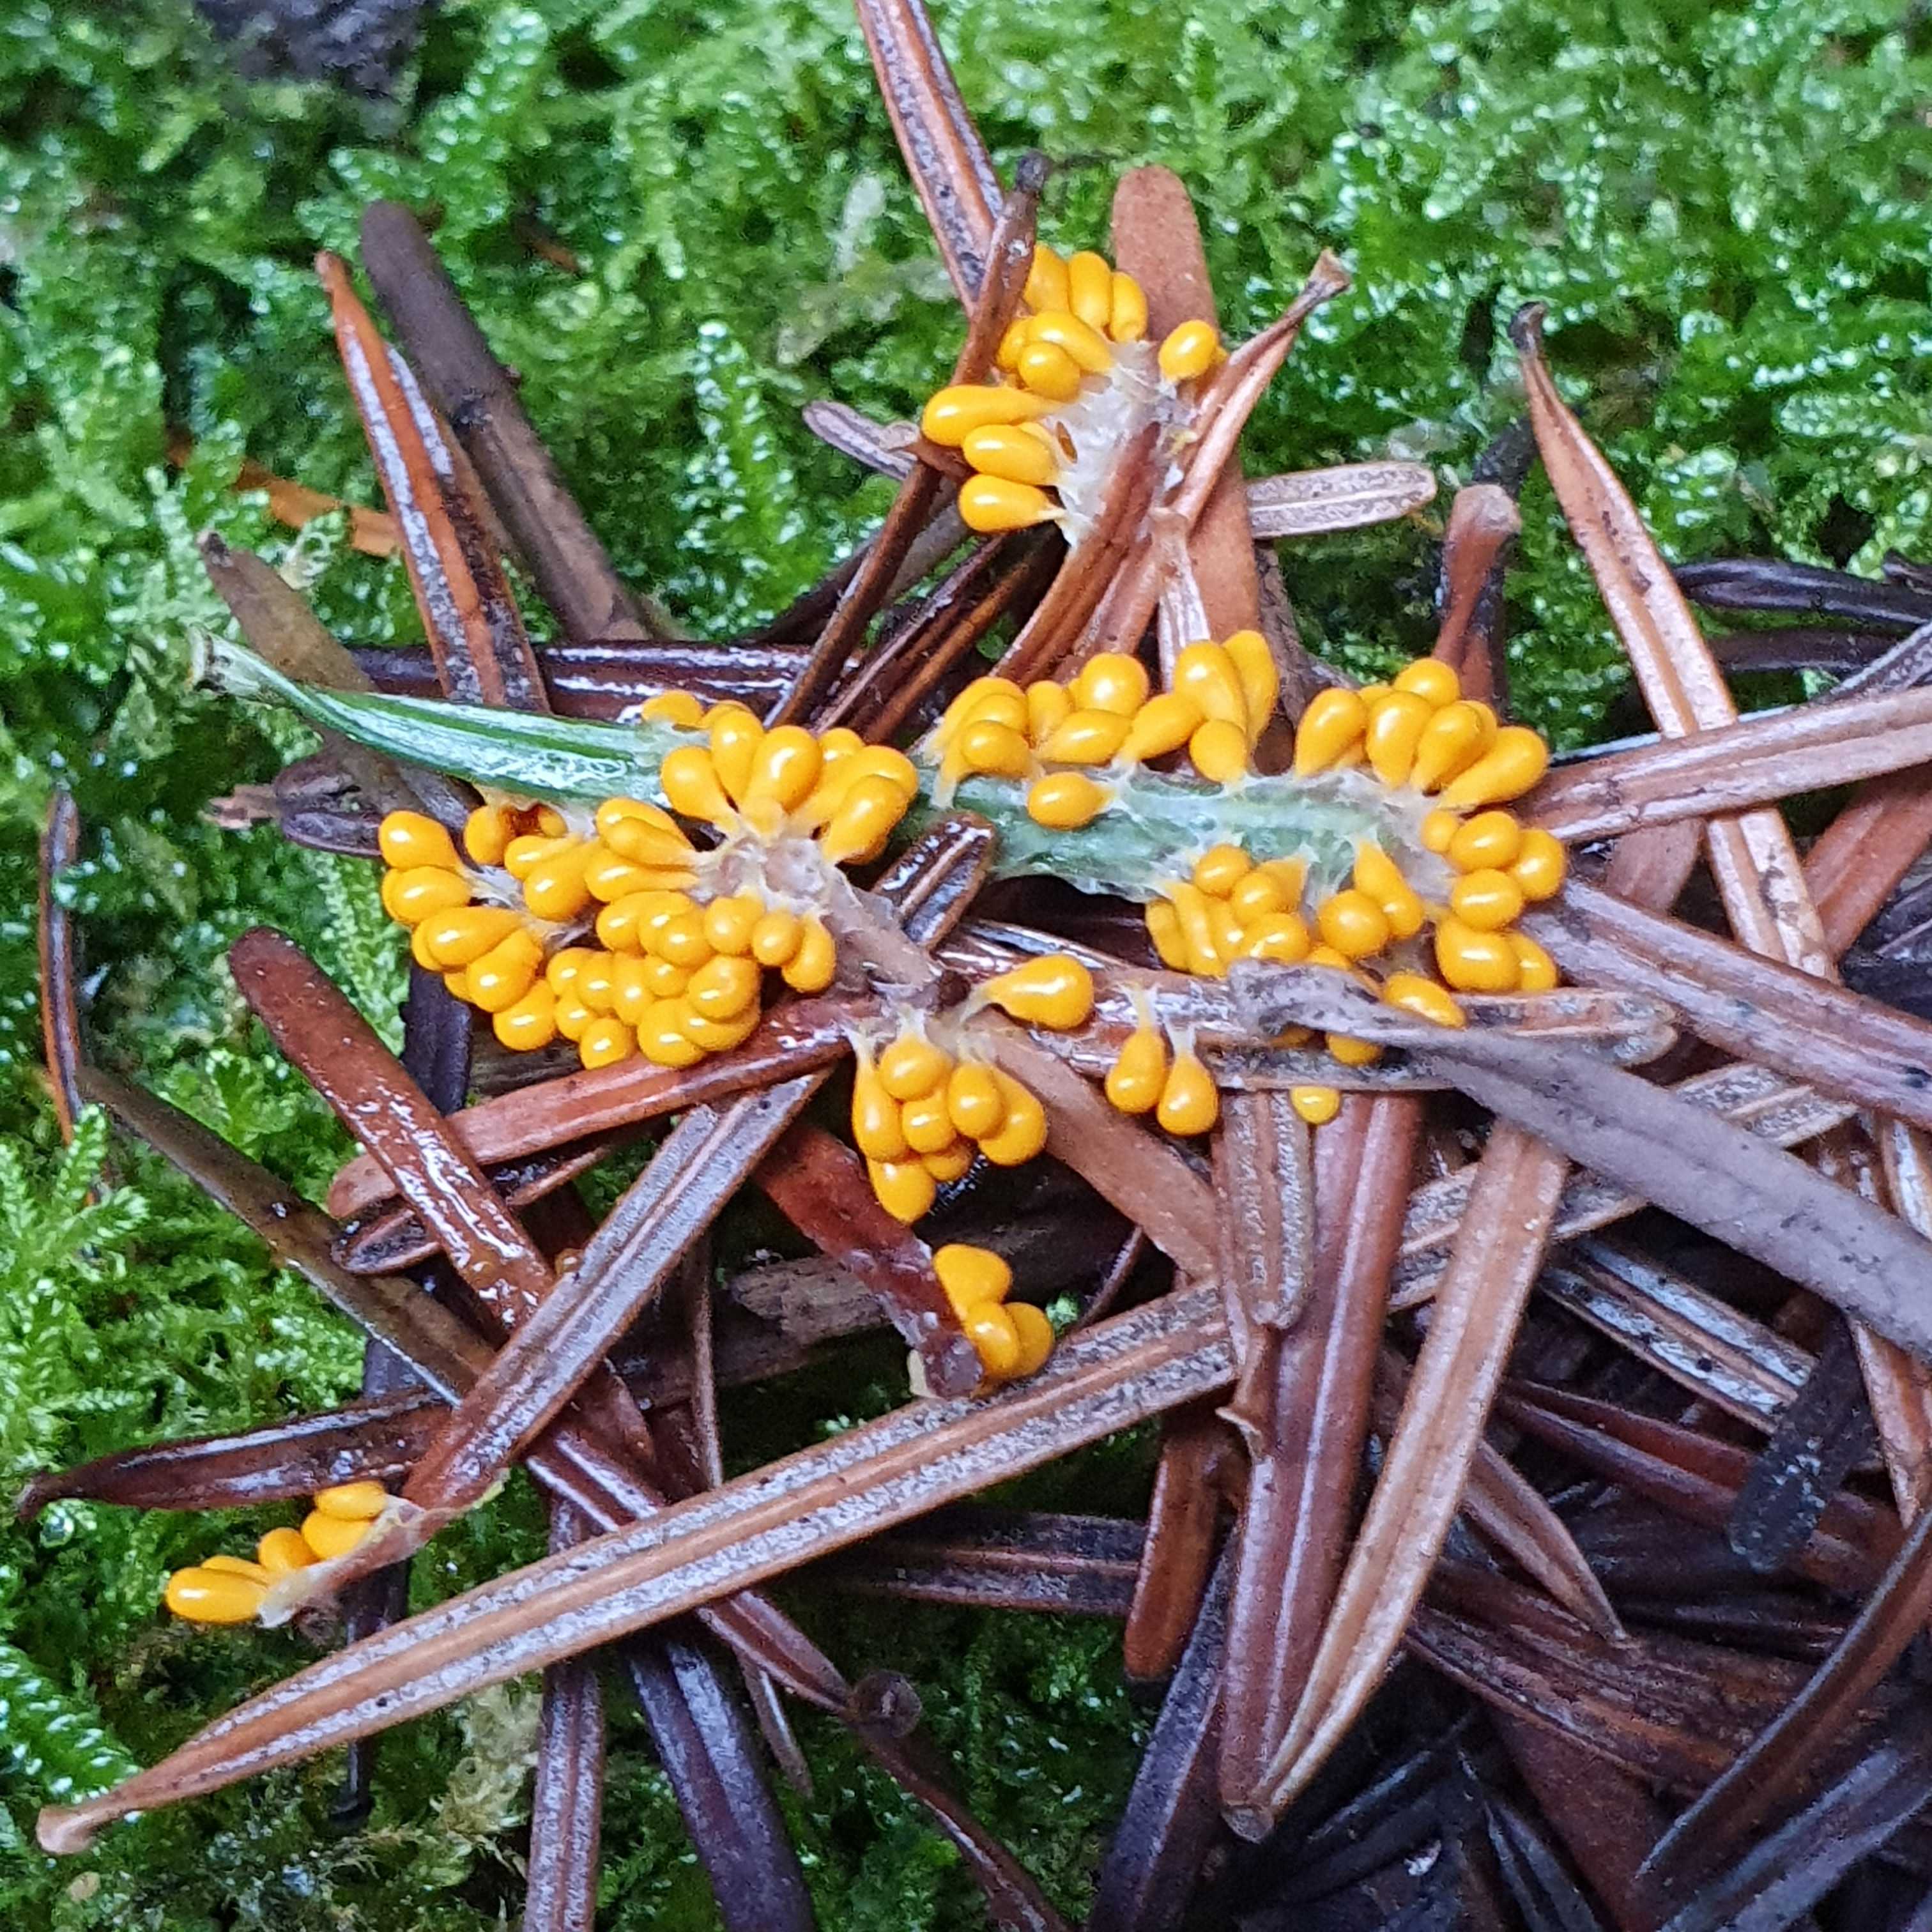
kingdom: Protozoa
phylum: Mycetozoa
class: Myxomycetes
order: Physarales
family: Physaraceae
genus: Leocarpus
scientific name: Leocarpus fragilis
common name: poleret glatfrø
